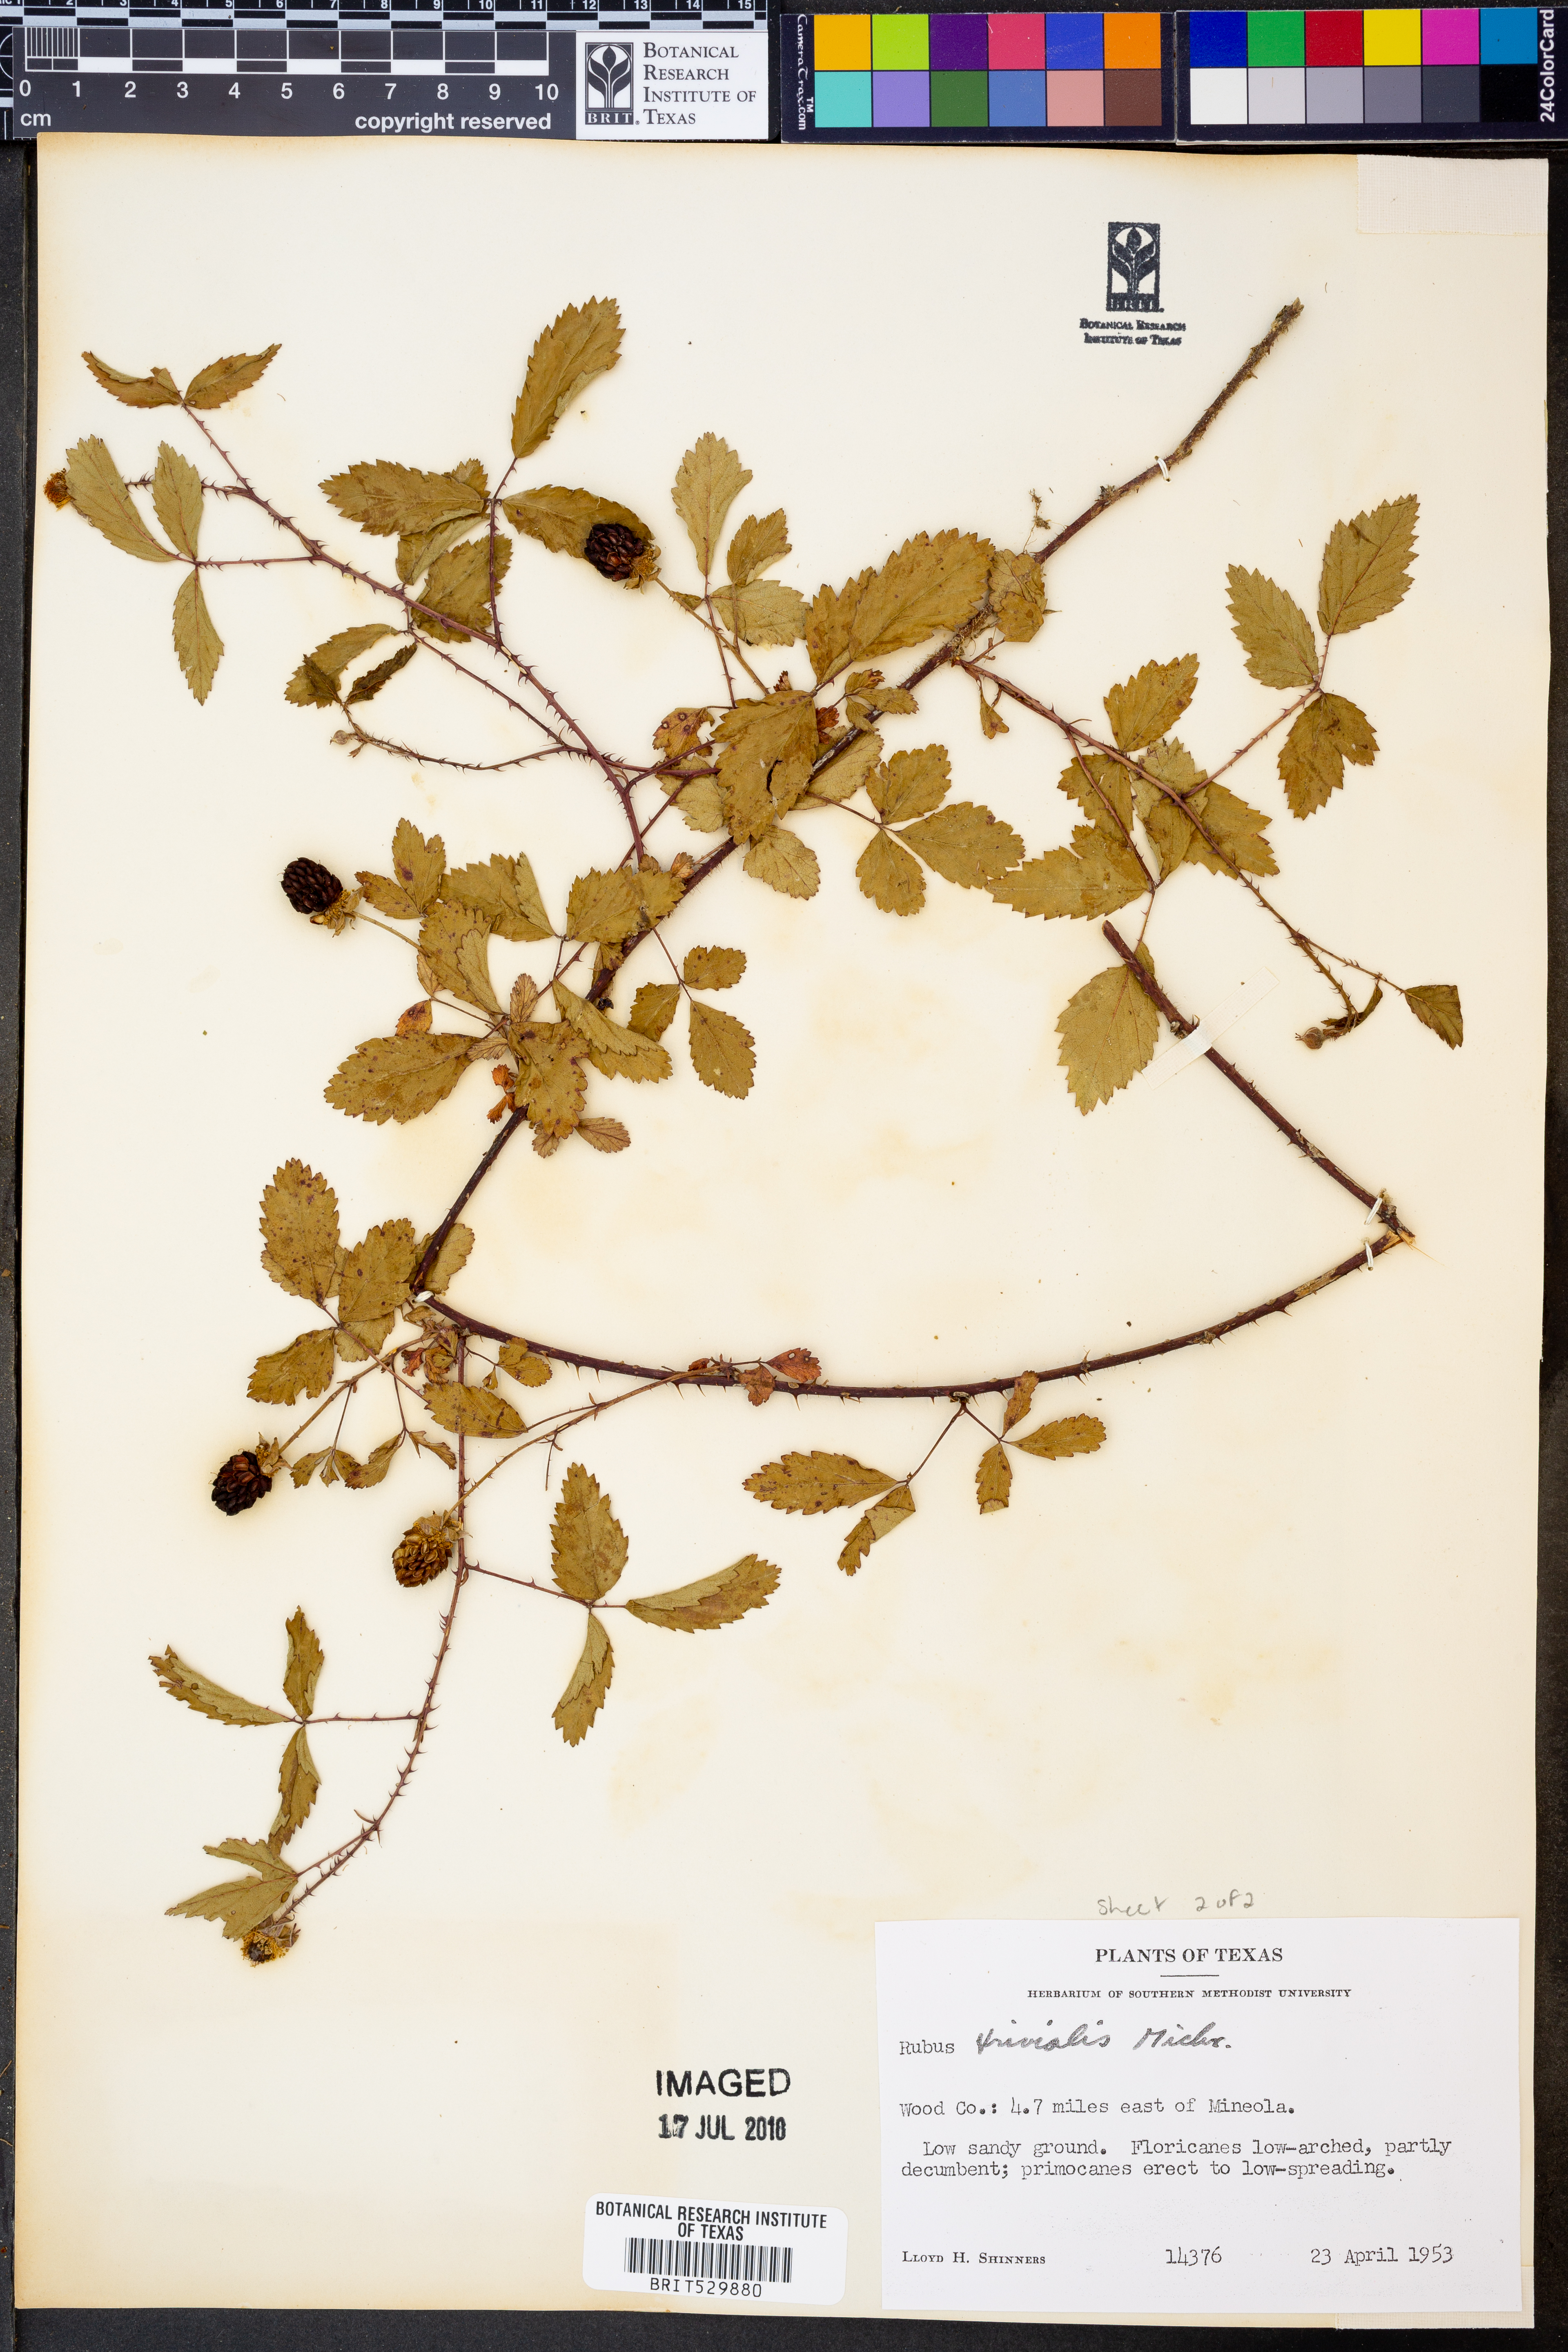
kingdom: Plantae
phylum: Tracheophyta
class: Magnoliopsida
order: Rosales
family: Rosaceae
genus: Rubus
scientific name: Rubus trivialis
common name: Southern dewberry
